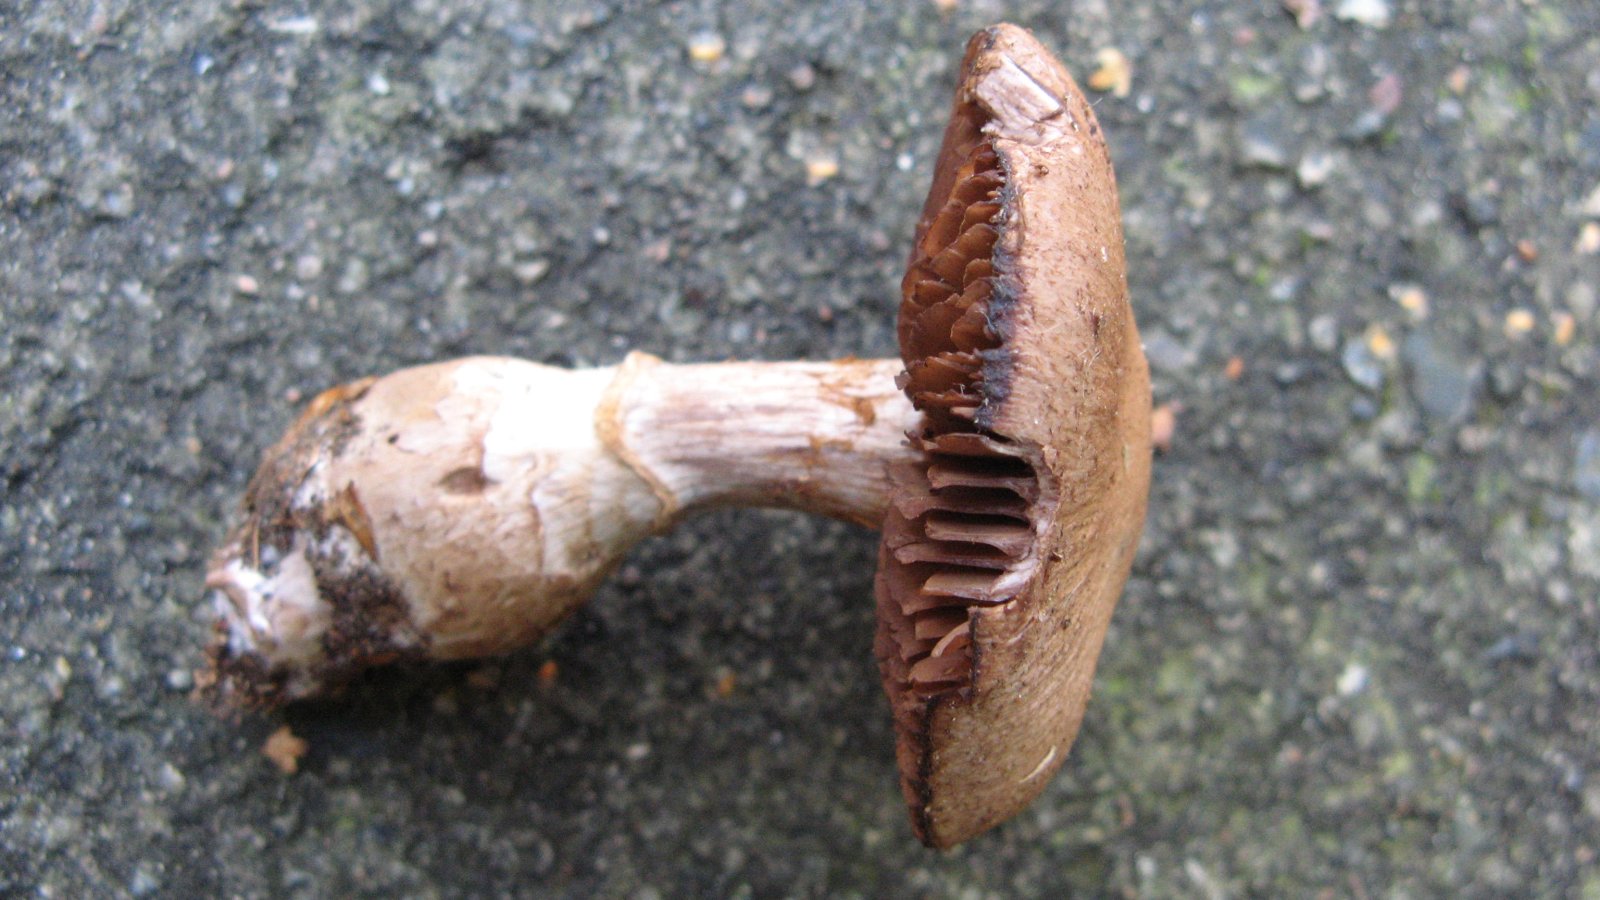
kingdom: Fungi
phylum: Basidiomycota
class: Agaricomycetes
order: Agaricales
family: Cortinariaceae
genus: Cortinarius
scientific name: Cortinarius torvus
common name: champignonagtig slørhat
